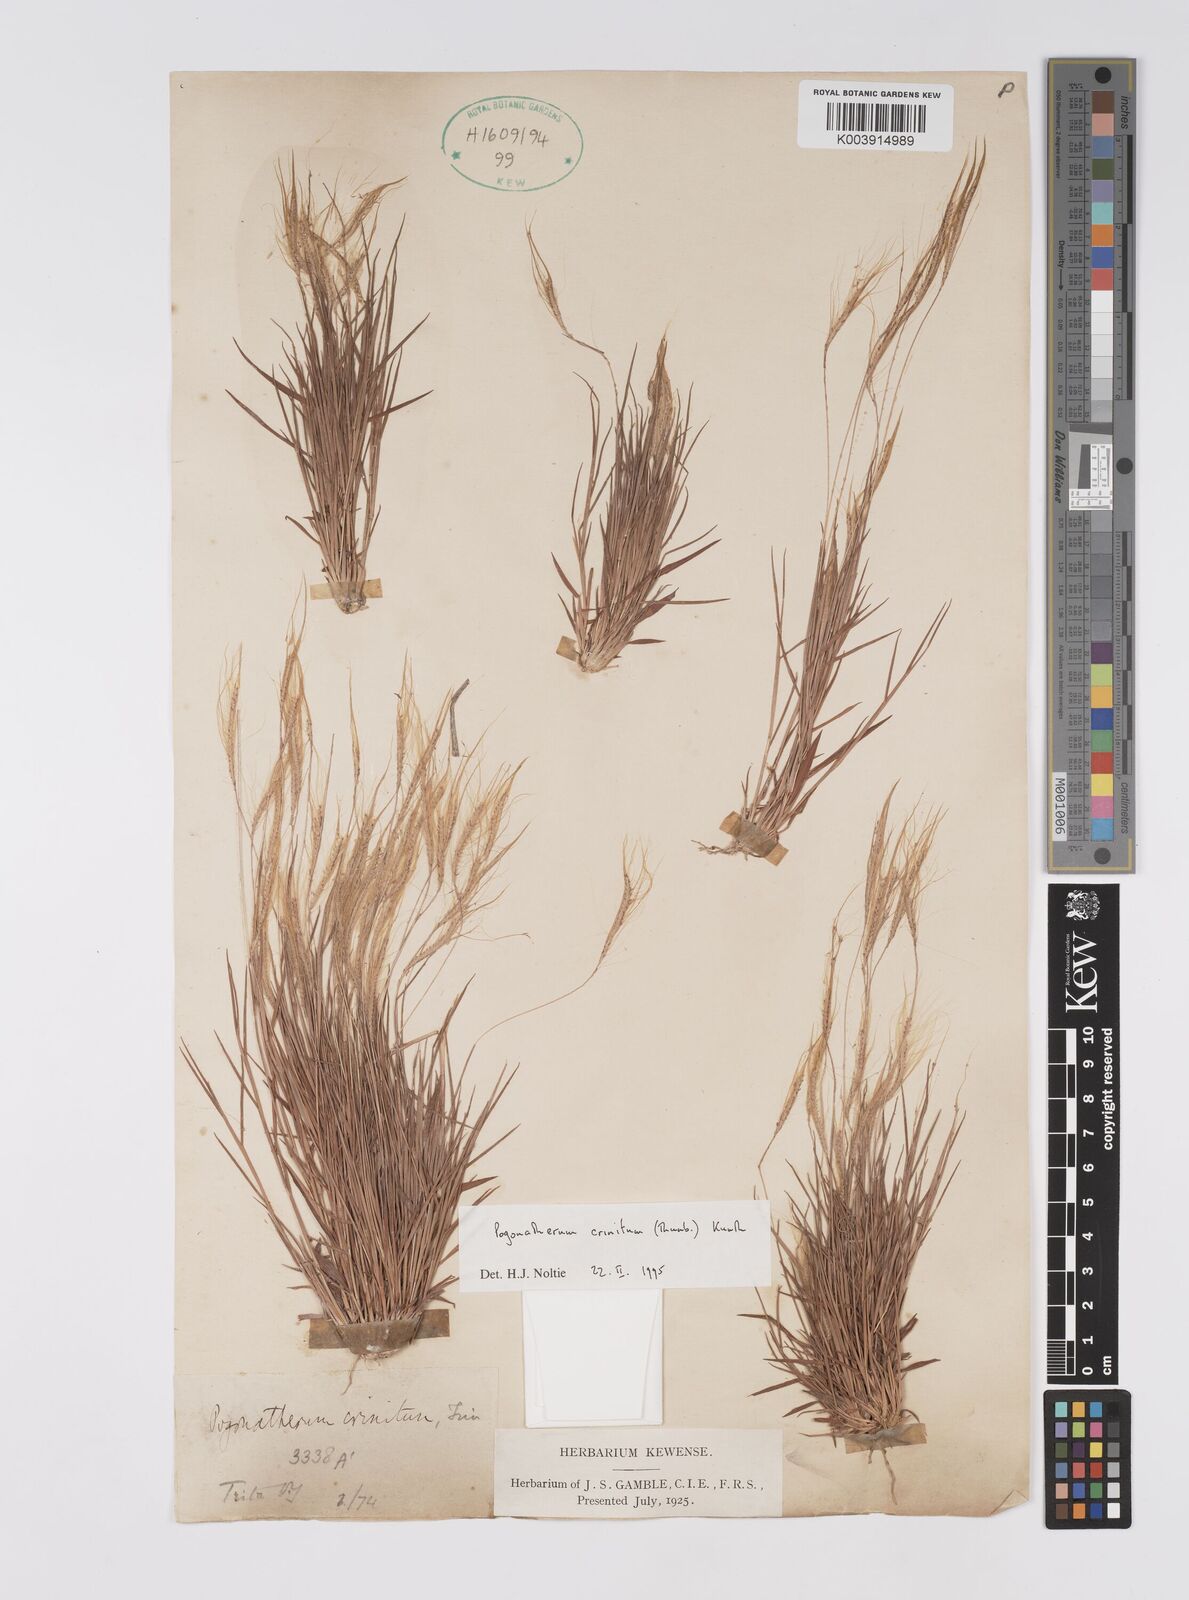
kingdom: Plantae
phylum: Tracheophyta
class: Liliopsida
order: Poales
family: Poaceae
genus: Pogonatherum
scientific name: Pogonatherum crinitum
